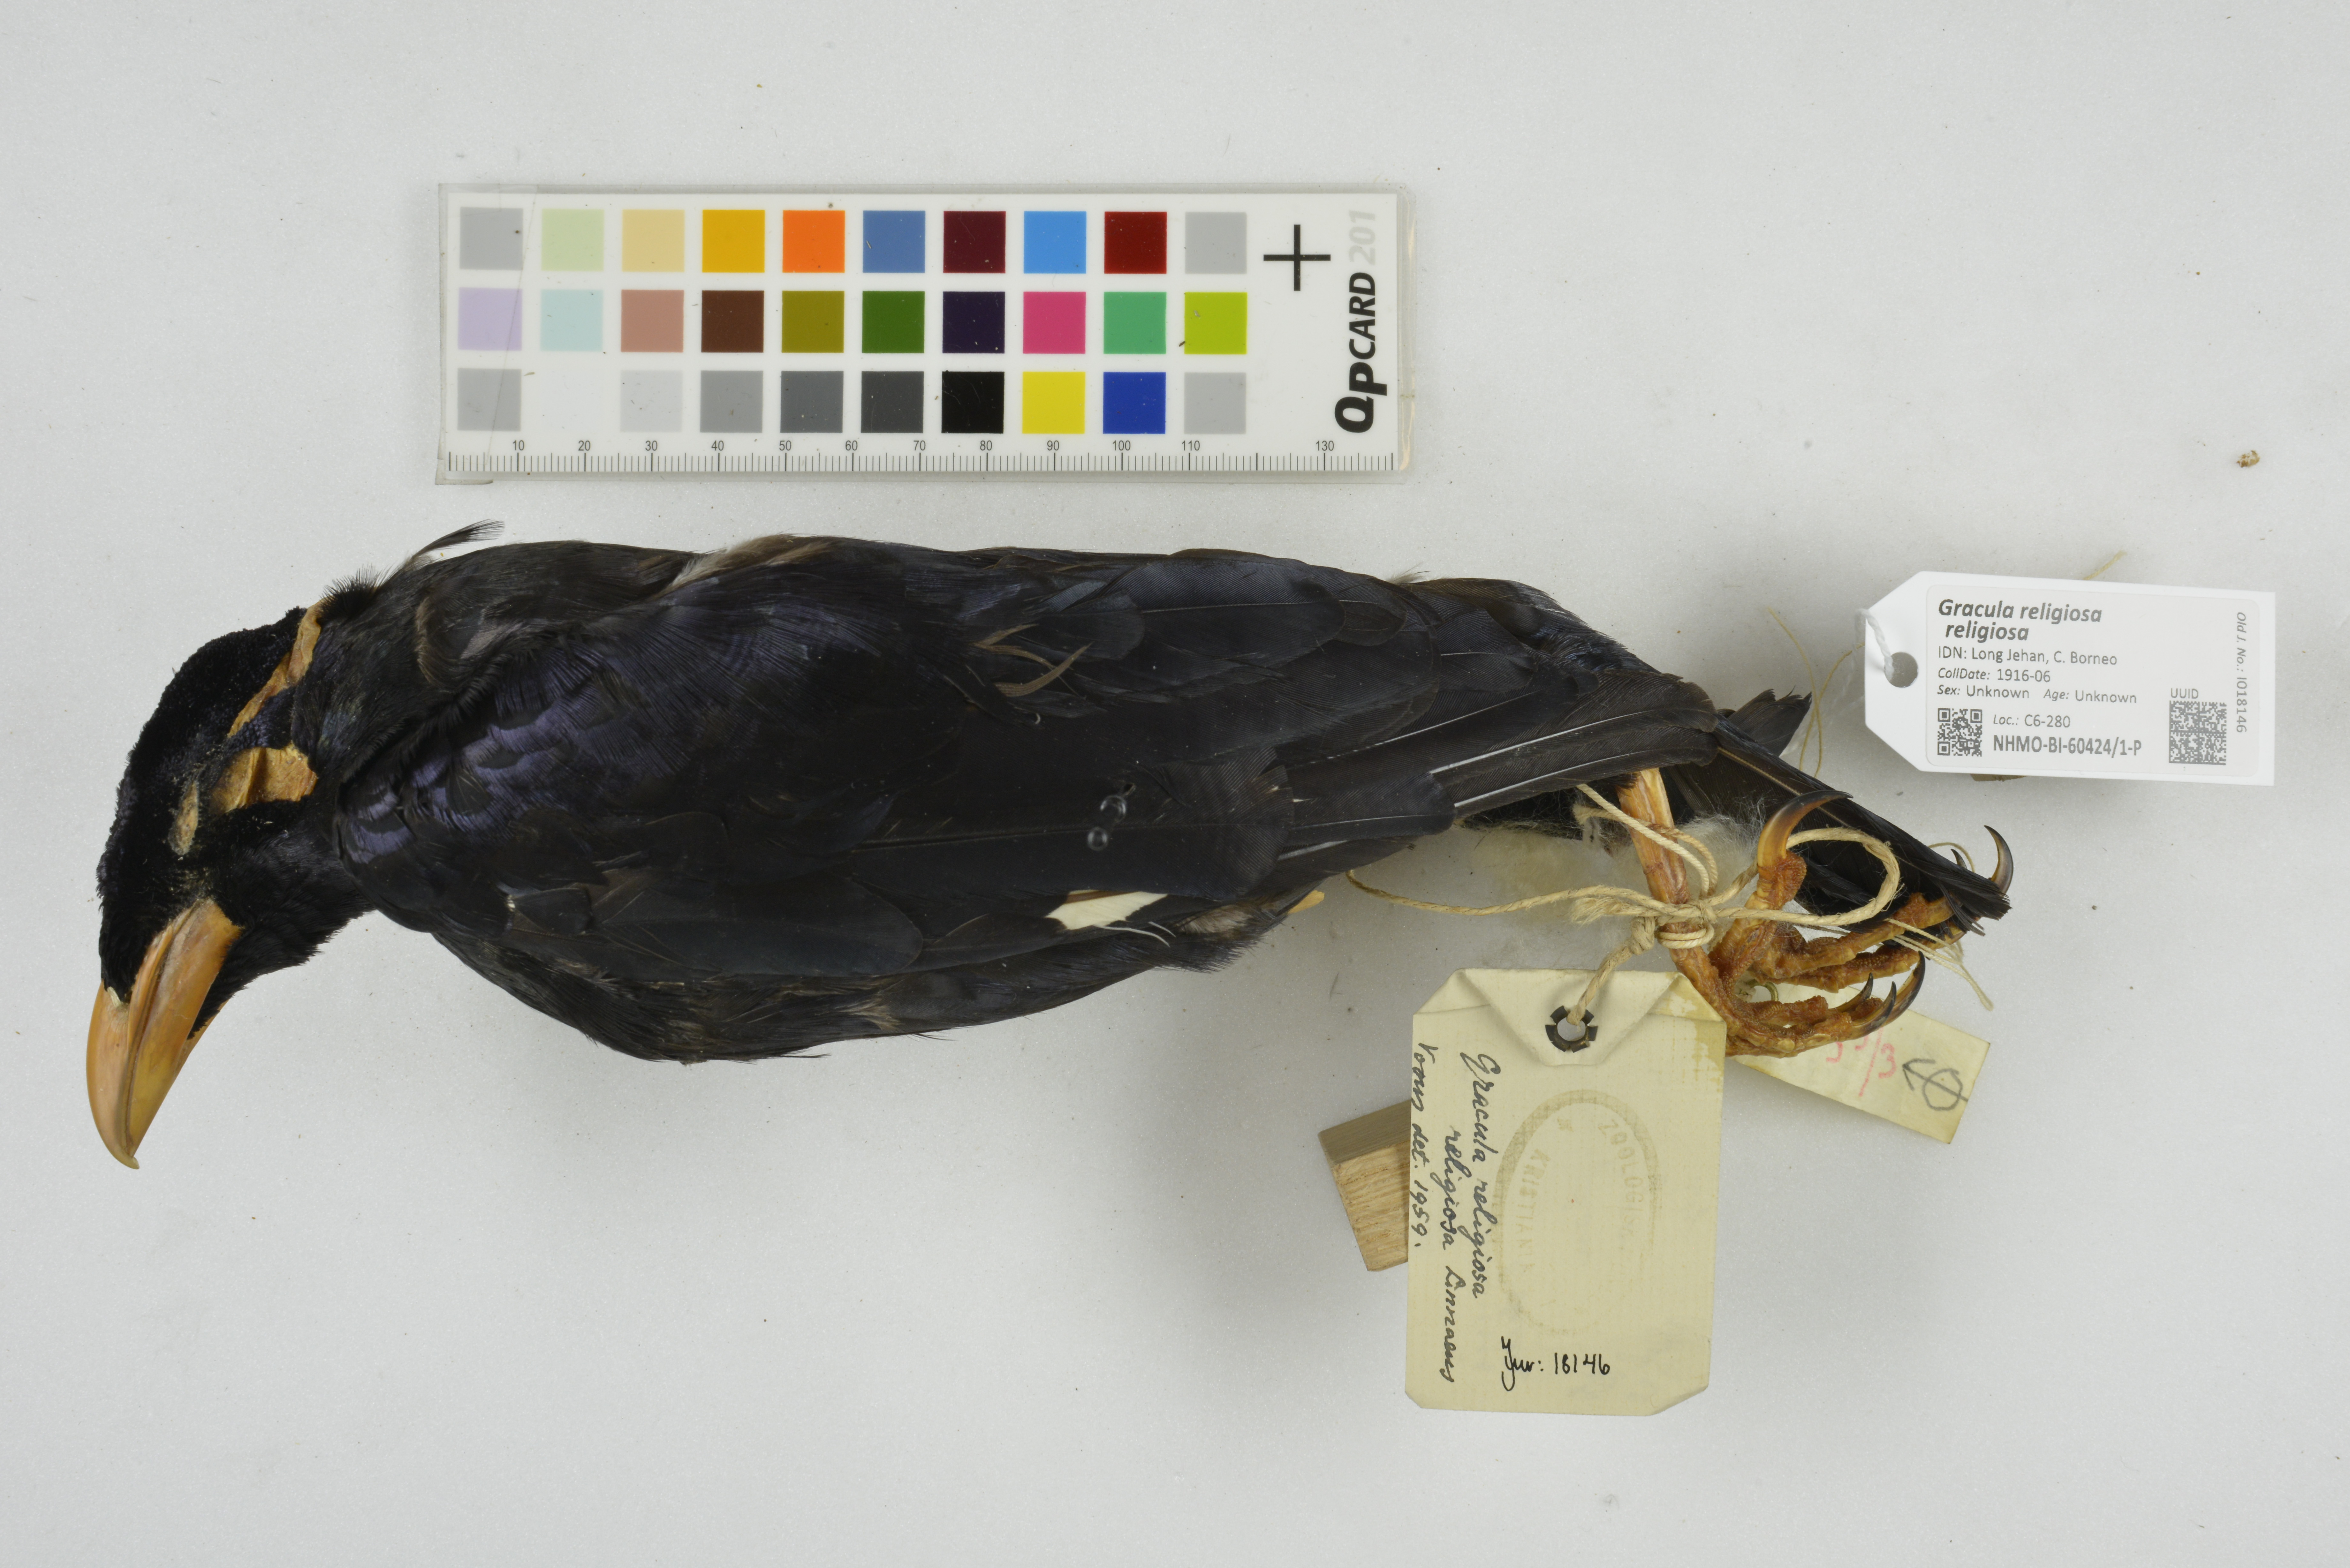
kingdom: Animalia
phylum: Chordata
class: Aves
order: Passeriformes
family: Sturnidae
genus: Gracula
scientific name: Gracula religiosa
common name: Common hill myna
